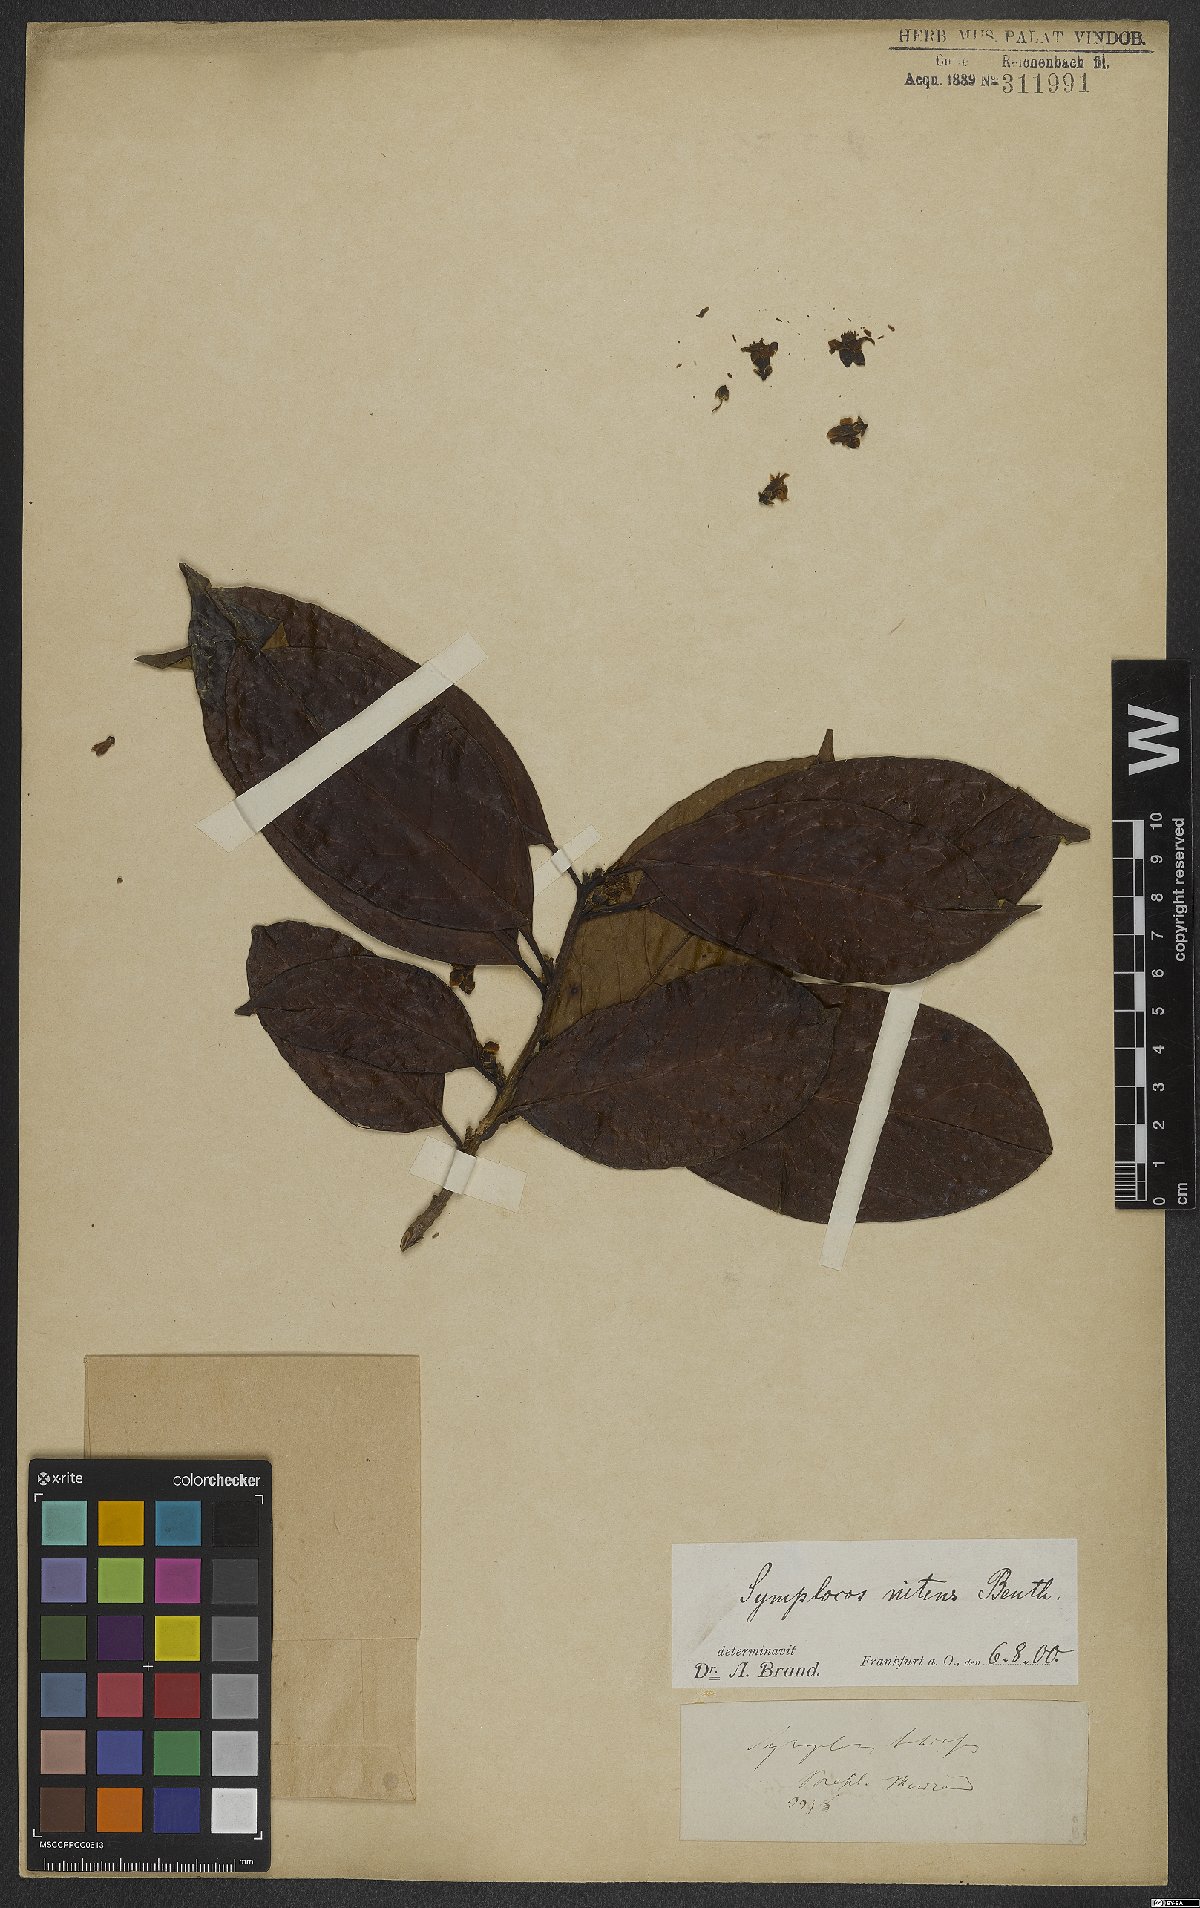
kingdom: Plantae
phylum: Tracheophyta
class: Magnoliopsida
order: Ericales
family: Symplocaceae
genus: Symplocos
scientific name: Symplocos nitens
